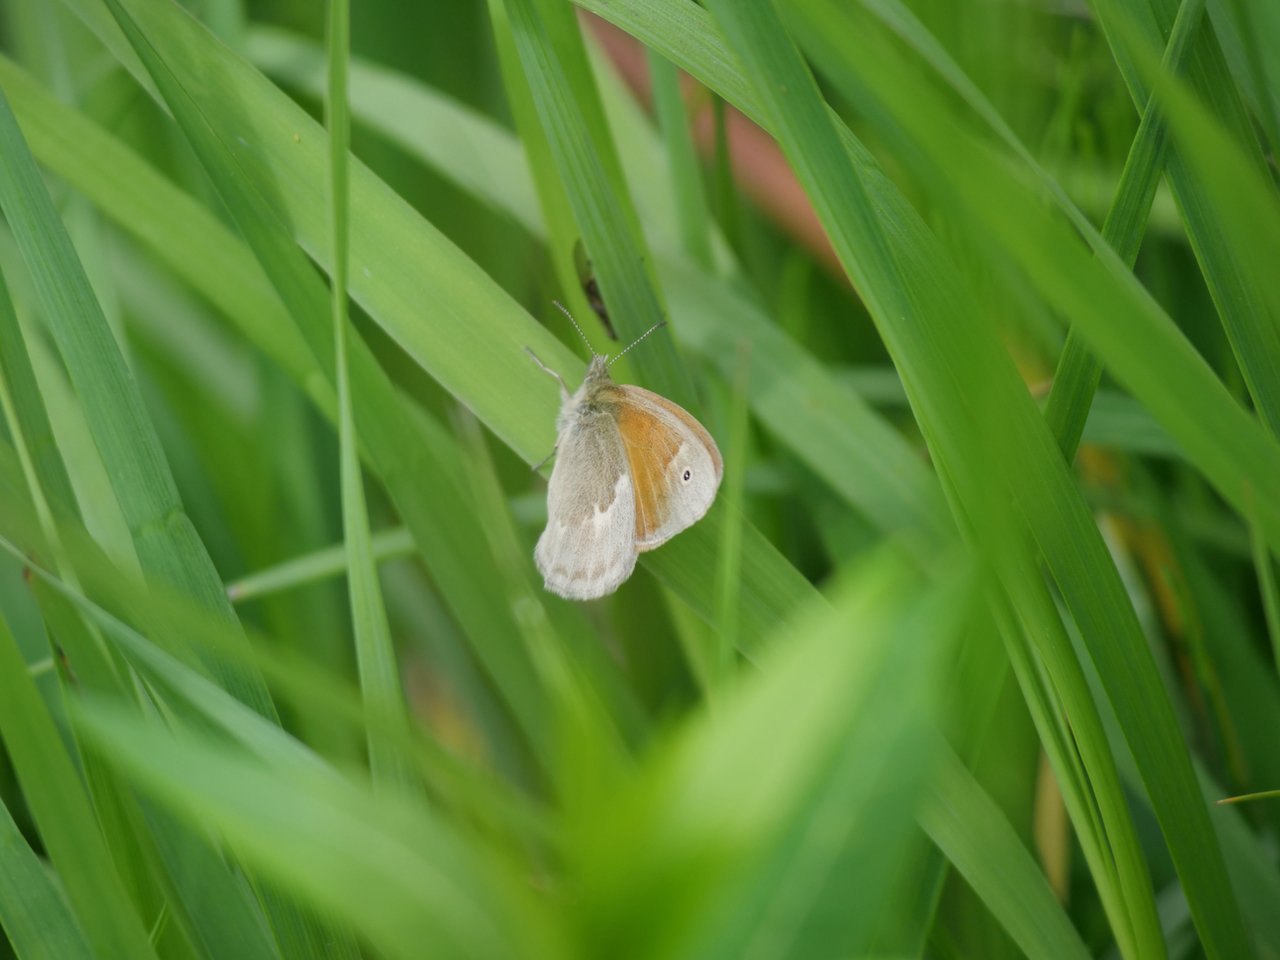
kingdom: Animalia
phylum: Arthropoda
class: Insecta
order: Lepidoptera
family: Nymphalidae
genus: Coenonympha
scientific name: Coenonympha tullia
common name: Large Heath
